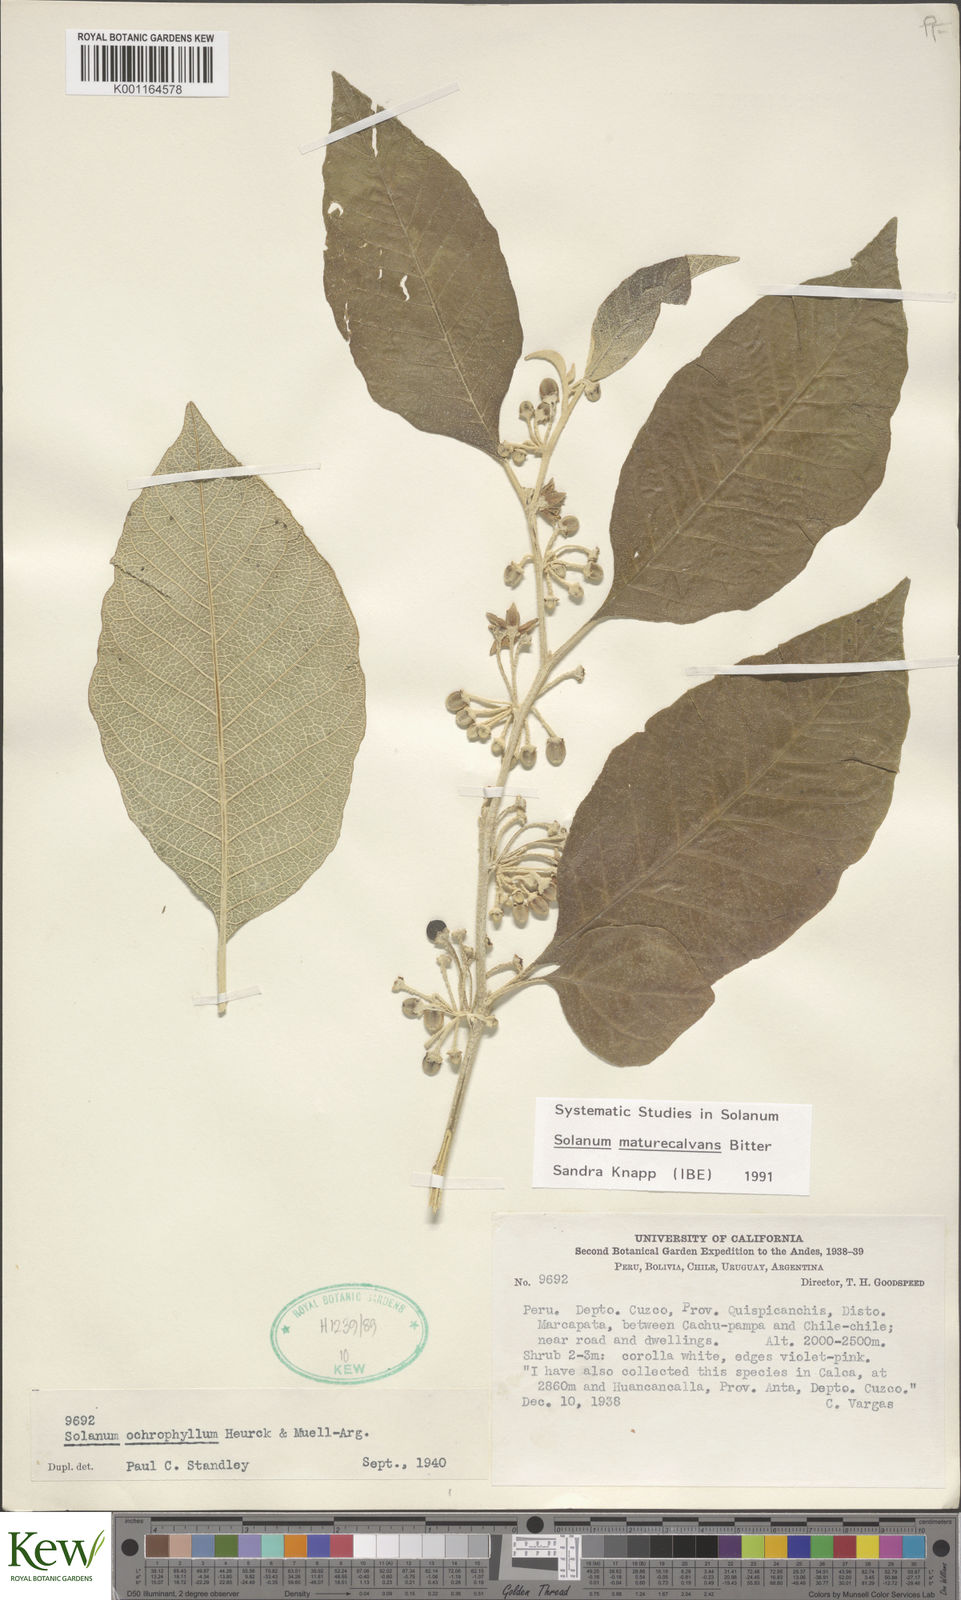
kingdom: Plantae
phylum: Tracheophyta
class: Magnoliopsida
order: Solanales
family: Solanaceae
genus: Solanum
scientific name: Solanum maturecalvans
